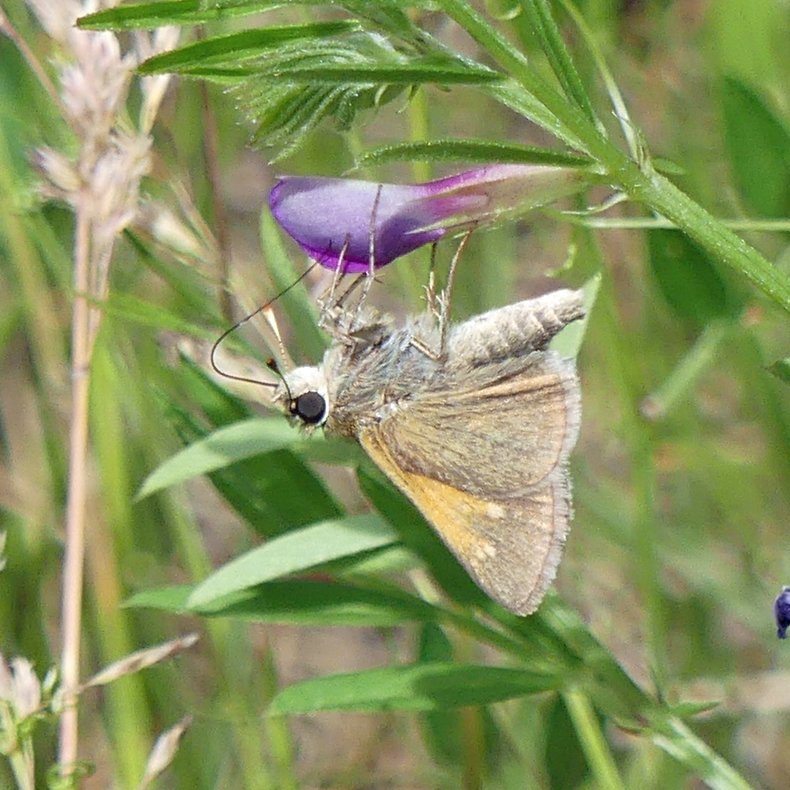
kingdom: Animalia
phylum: Arthropoda
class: Insecta
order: Lepidoptera
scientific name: Lepidoptera
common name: Butterflies
